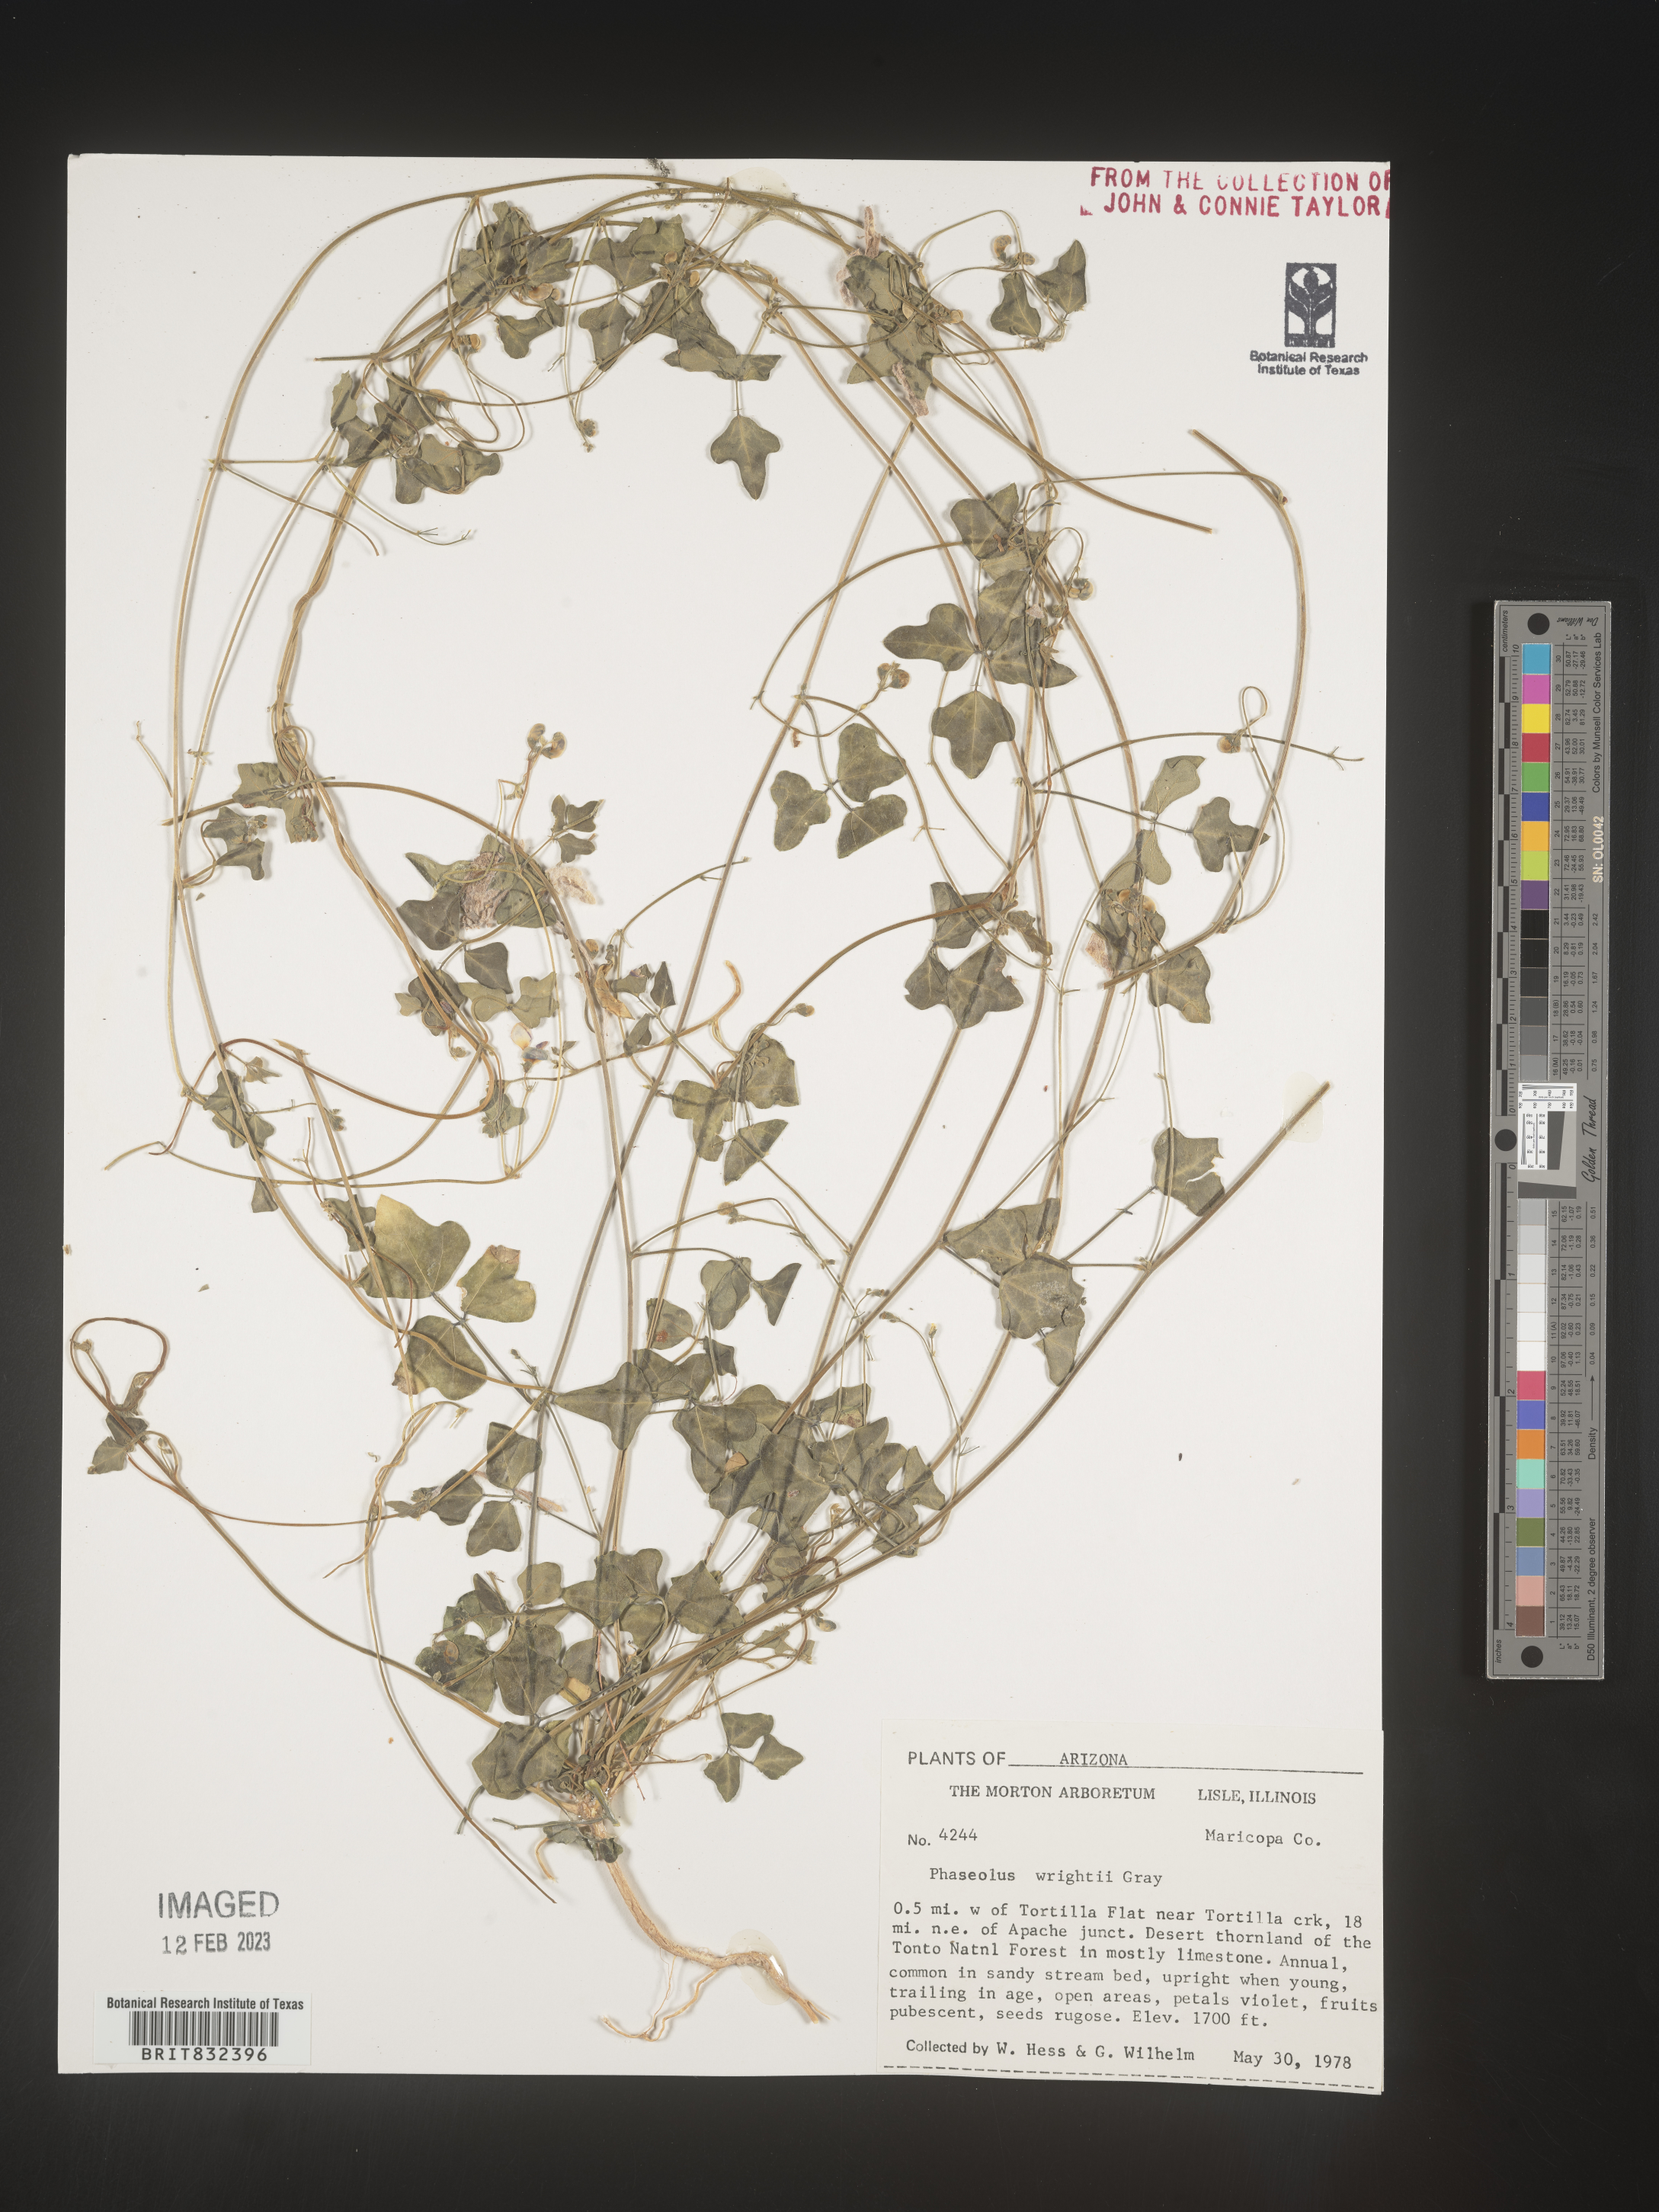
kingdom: Plantae
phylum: Tracheophyta
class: Magnoliopsida
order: Fabales
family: Fabaceae
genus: Strophostyles
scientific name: Strophostyles umbellata
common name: Perennial wild bean
